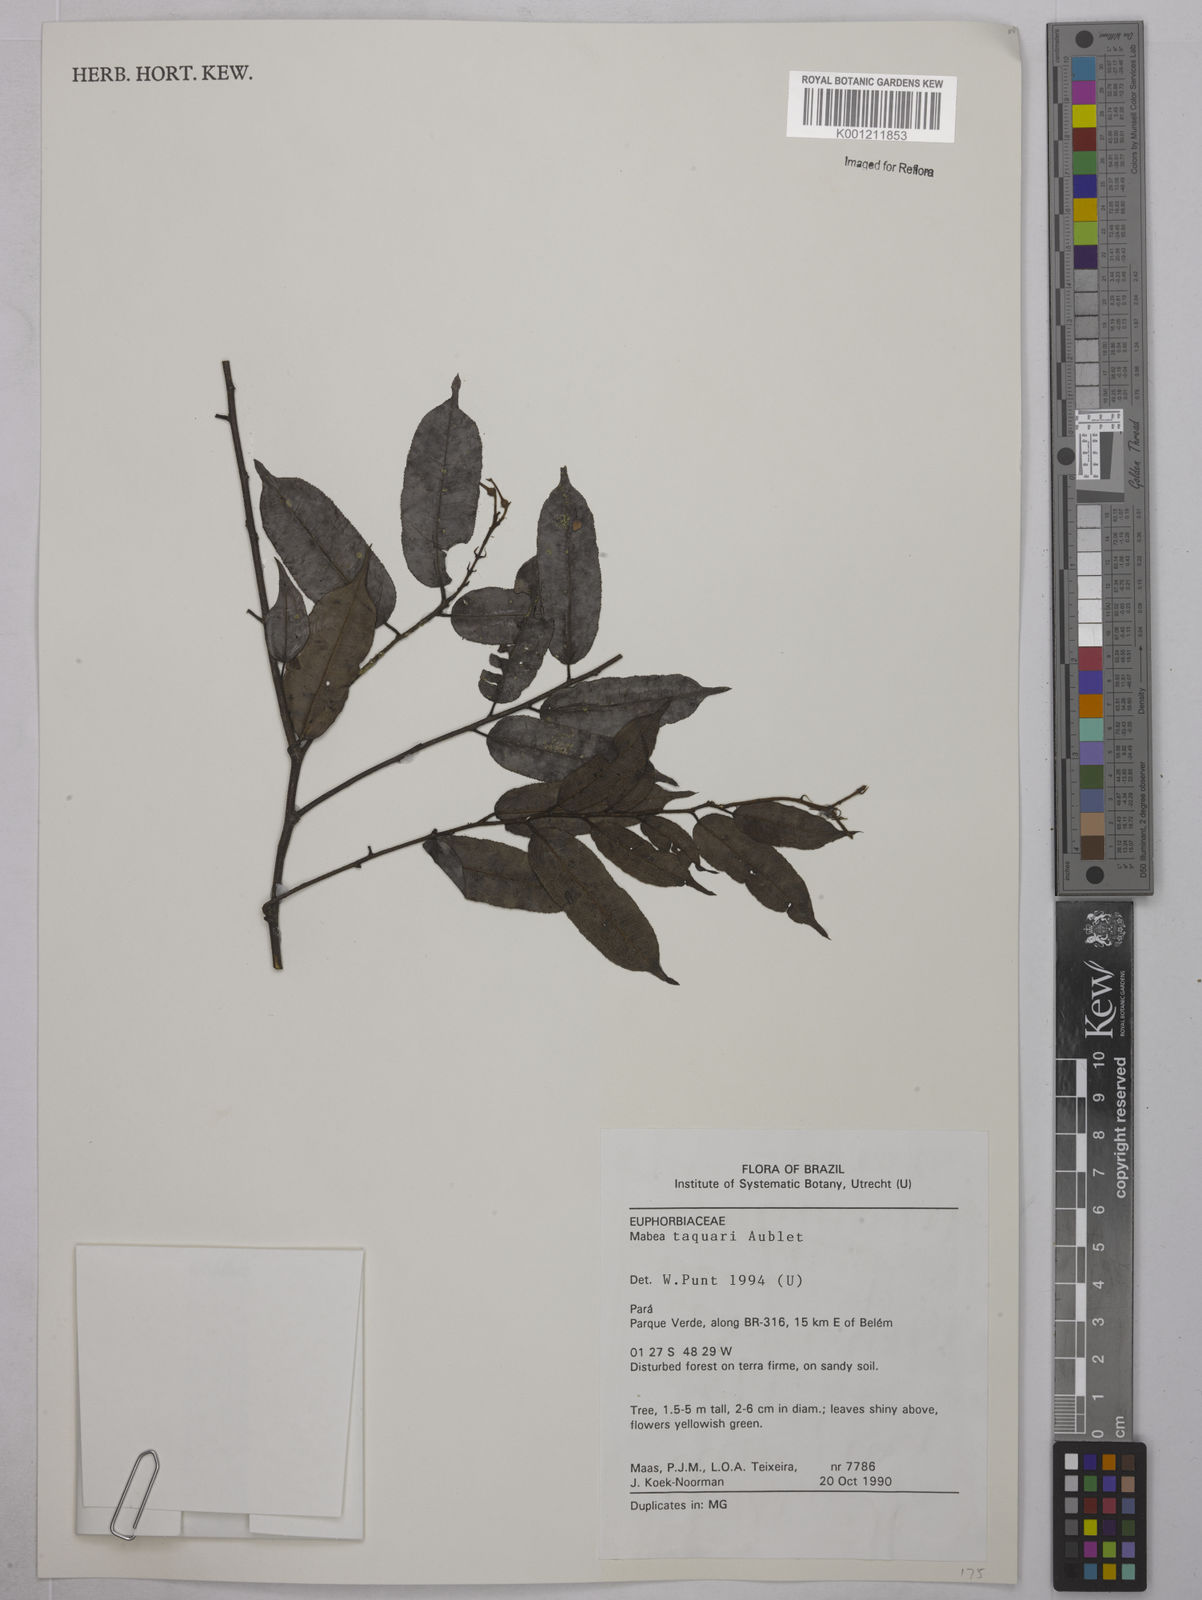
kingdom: Plantae
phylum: Tracheophyta
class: Magnoliopsida
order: Malpighiales
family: Euphorbiaceae
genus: Mabea
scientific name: Mabea taquari
